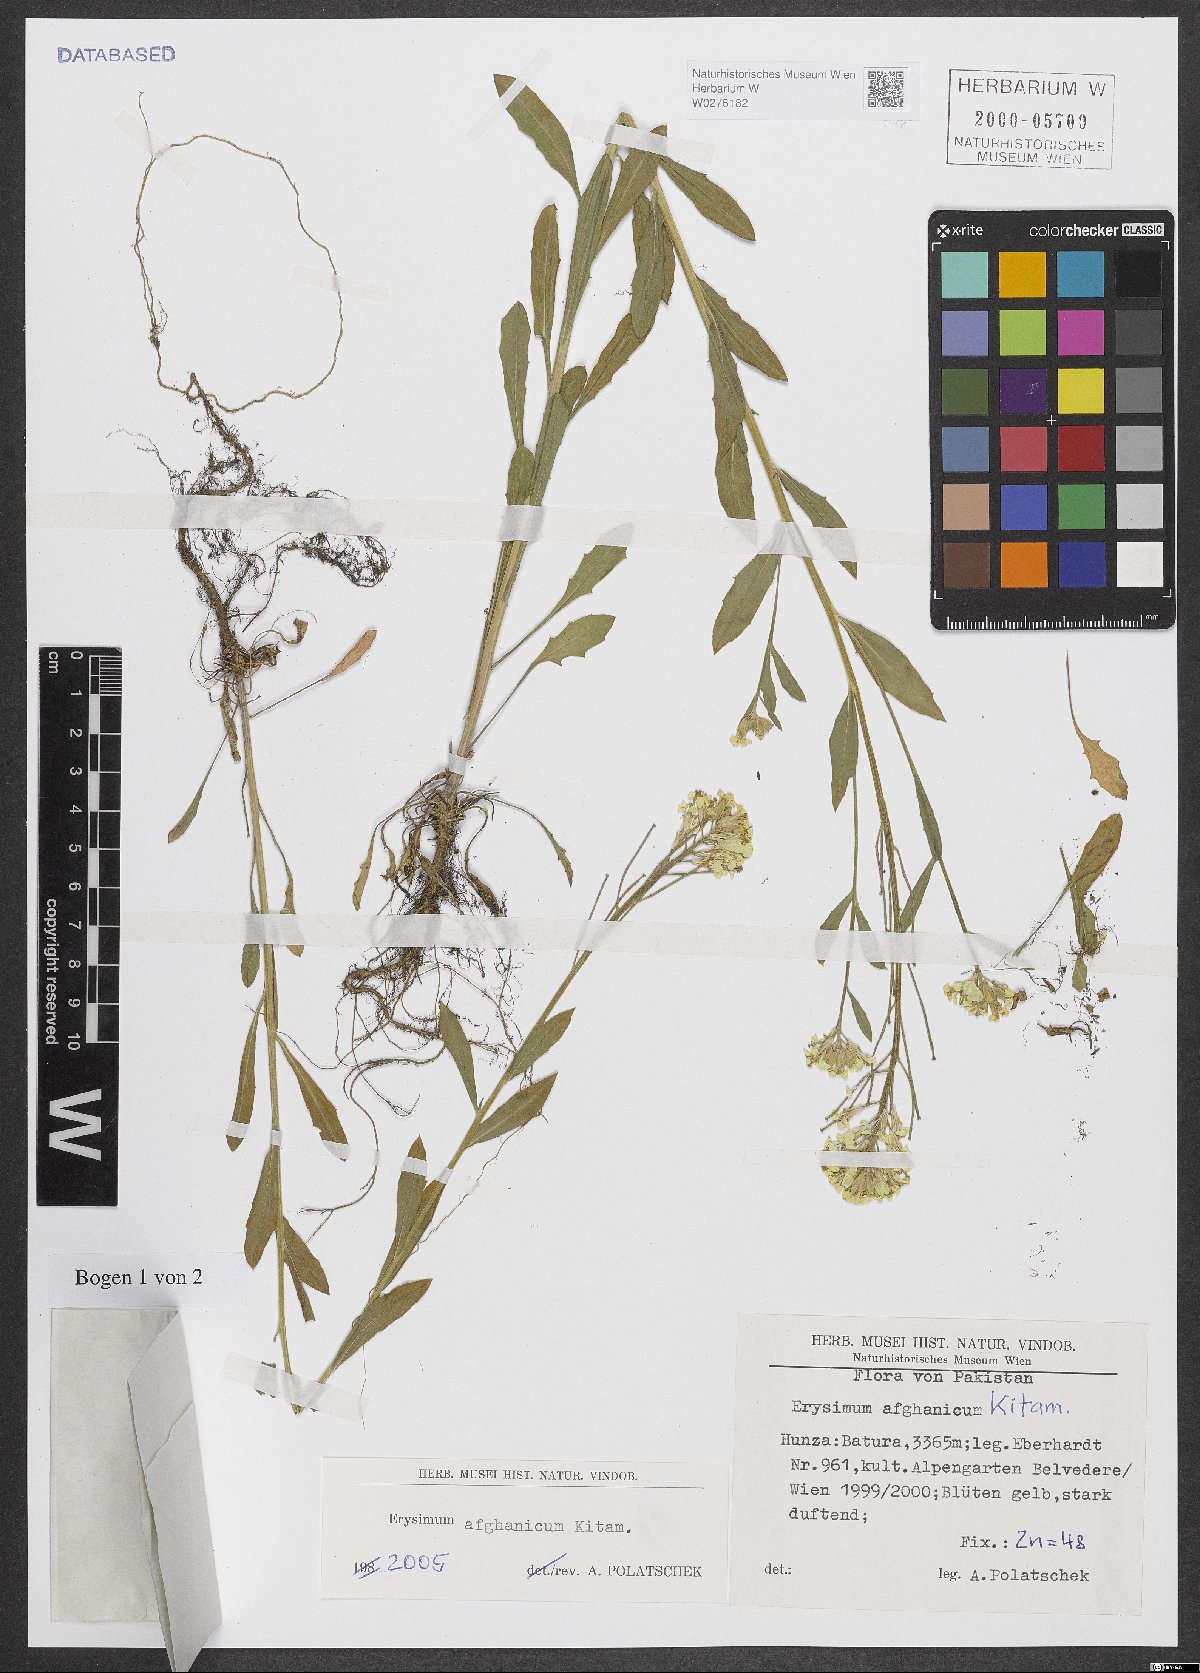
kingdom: Plantae
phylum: Tracheophyta
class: Magnoliopsida
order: Brassicales
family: Brassicaceae
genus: Erysimum
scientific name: Erysimum hieraciifolium
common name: European wallflower
